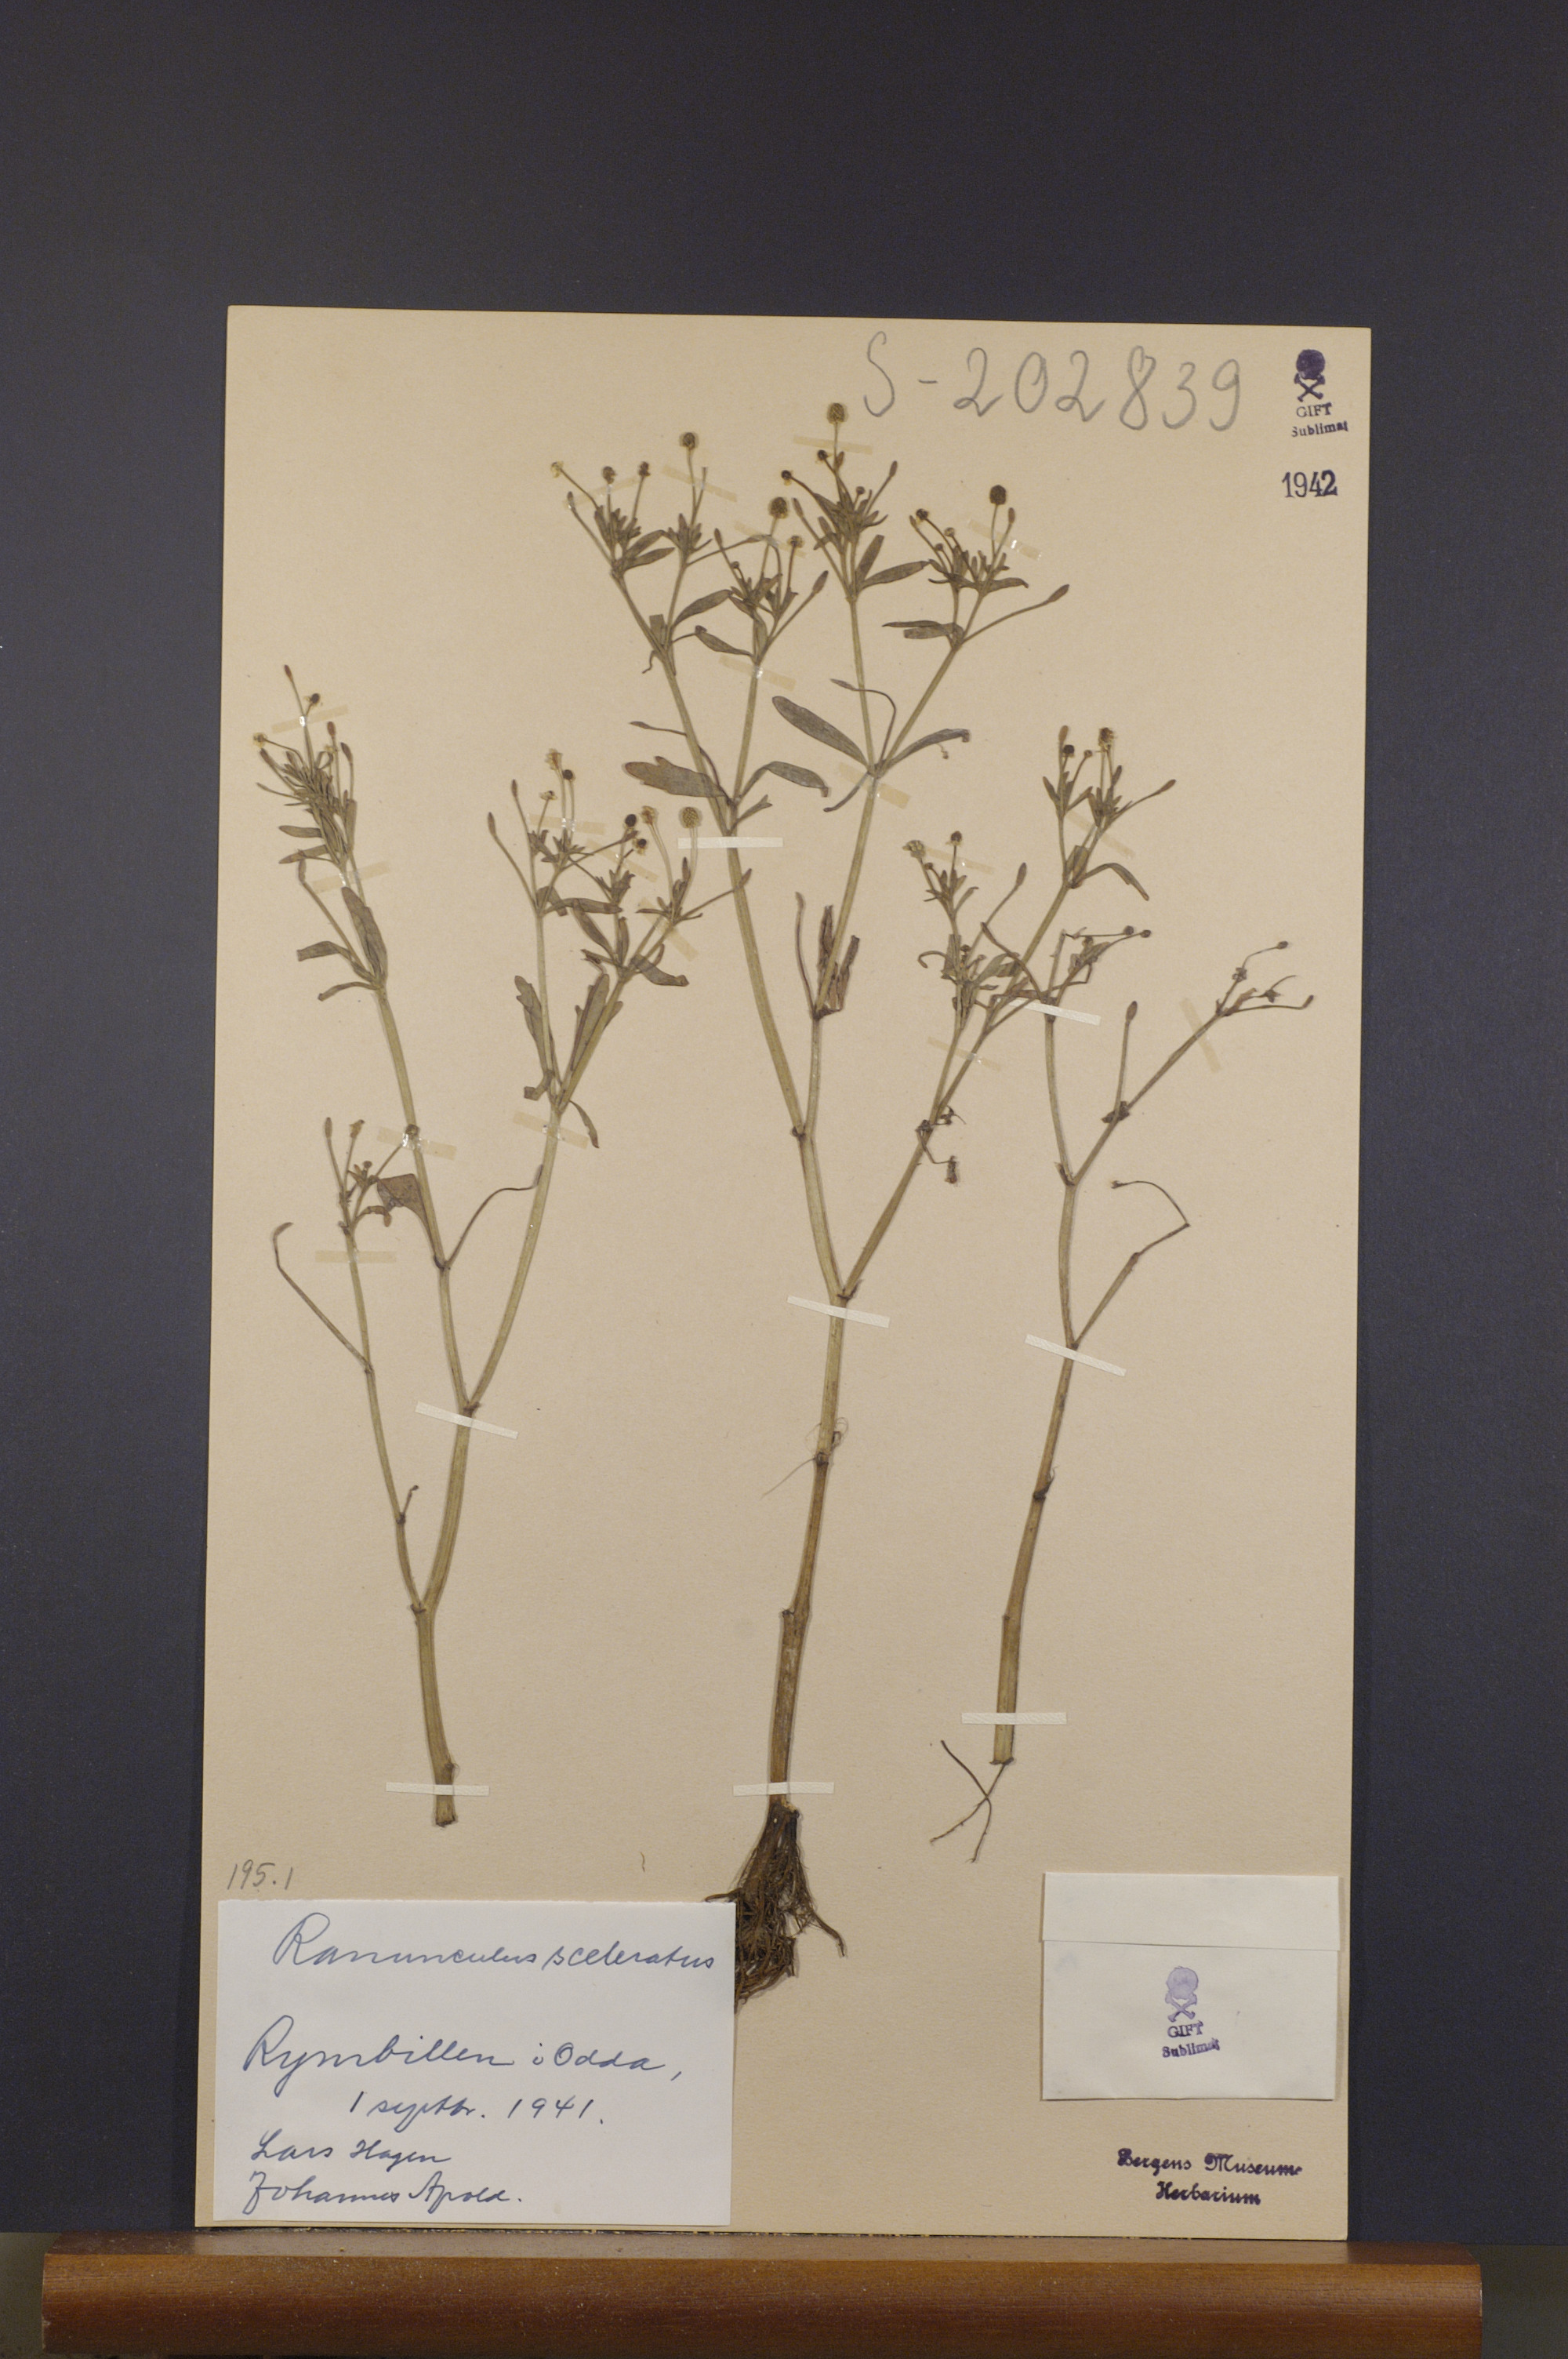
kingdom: Plantae
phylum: Tracheophyta
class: Magnoliopsida
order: Ranunculales
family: Ranunculaceae
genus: Ranunculus
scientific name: Ranunculus sceleratus
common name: Celery-leaved buttercup
